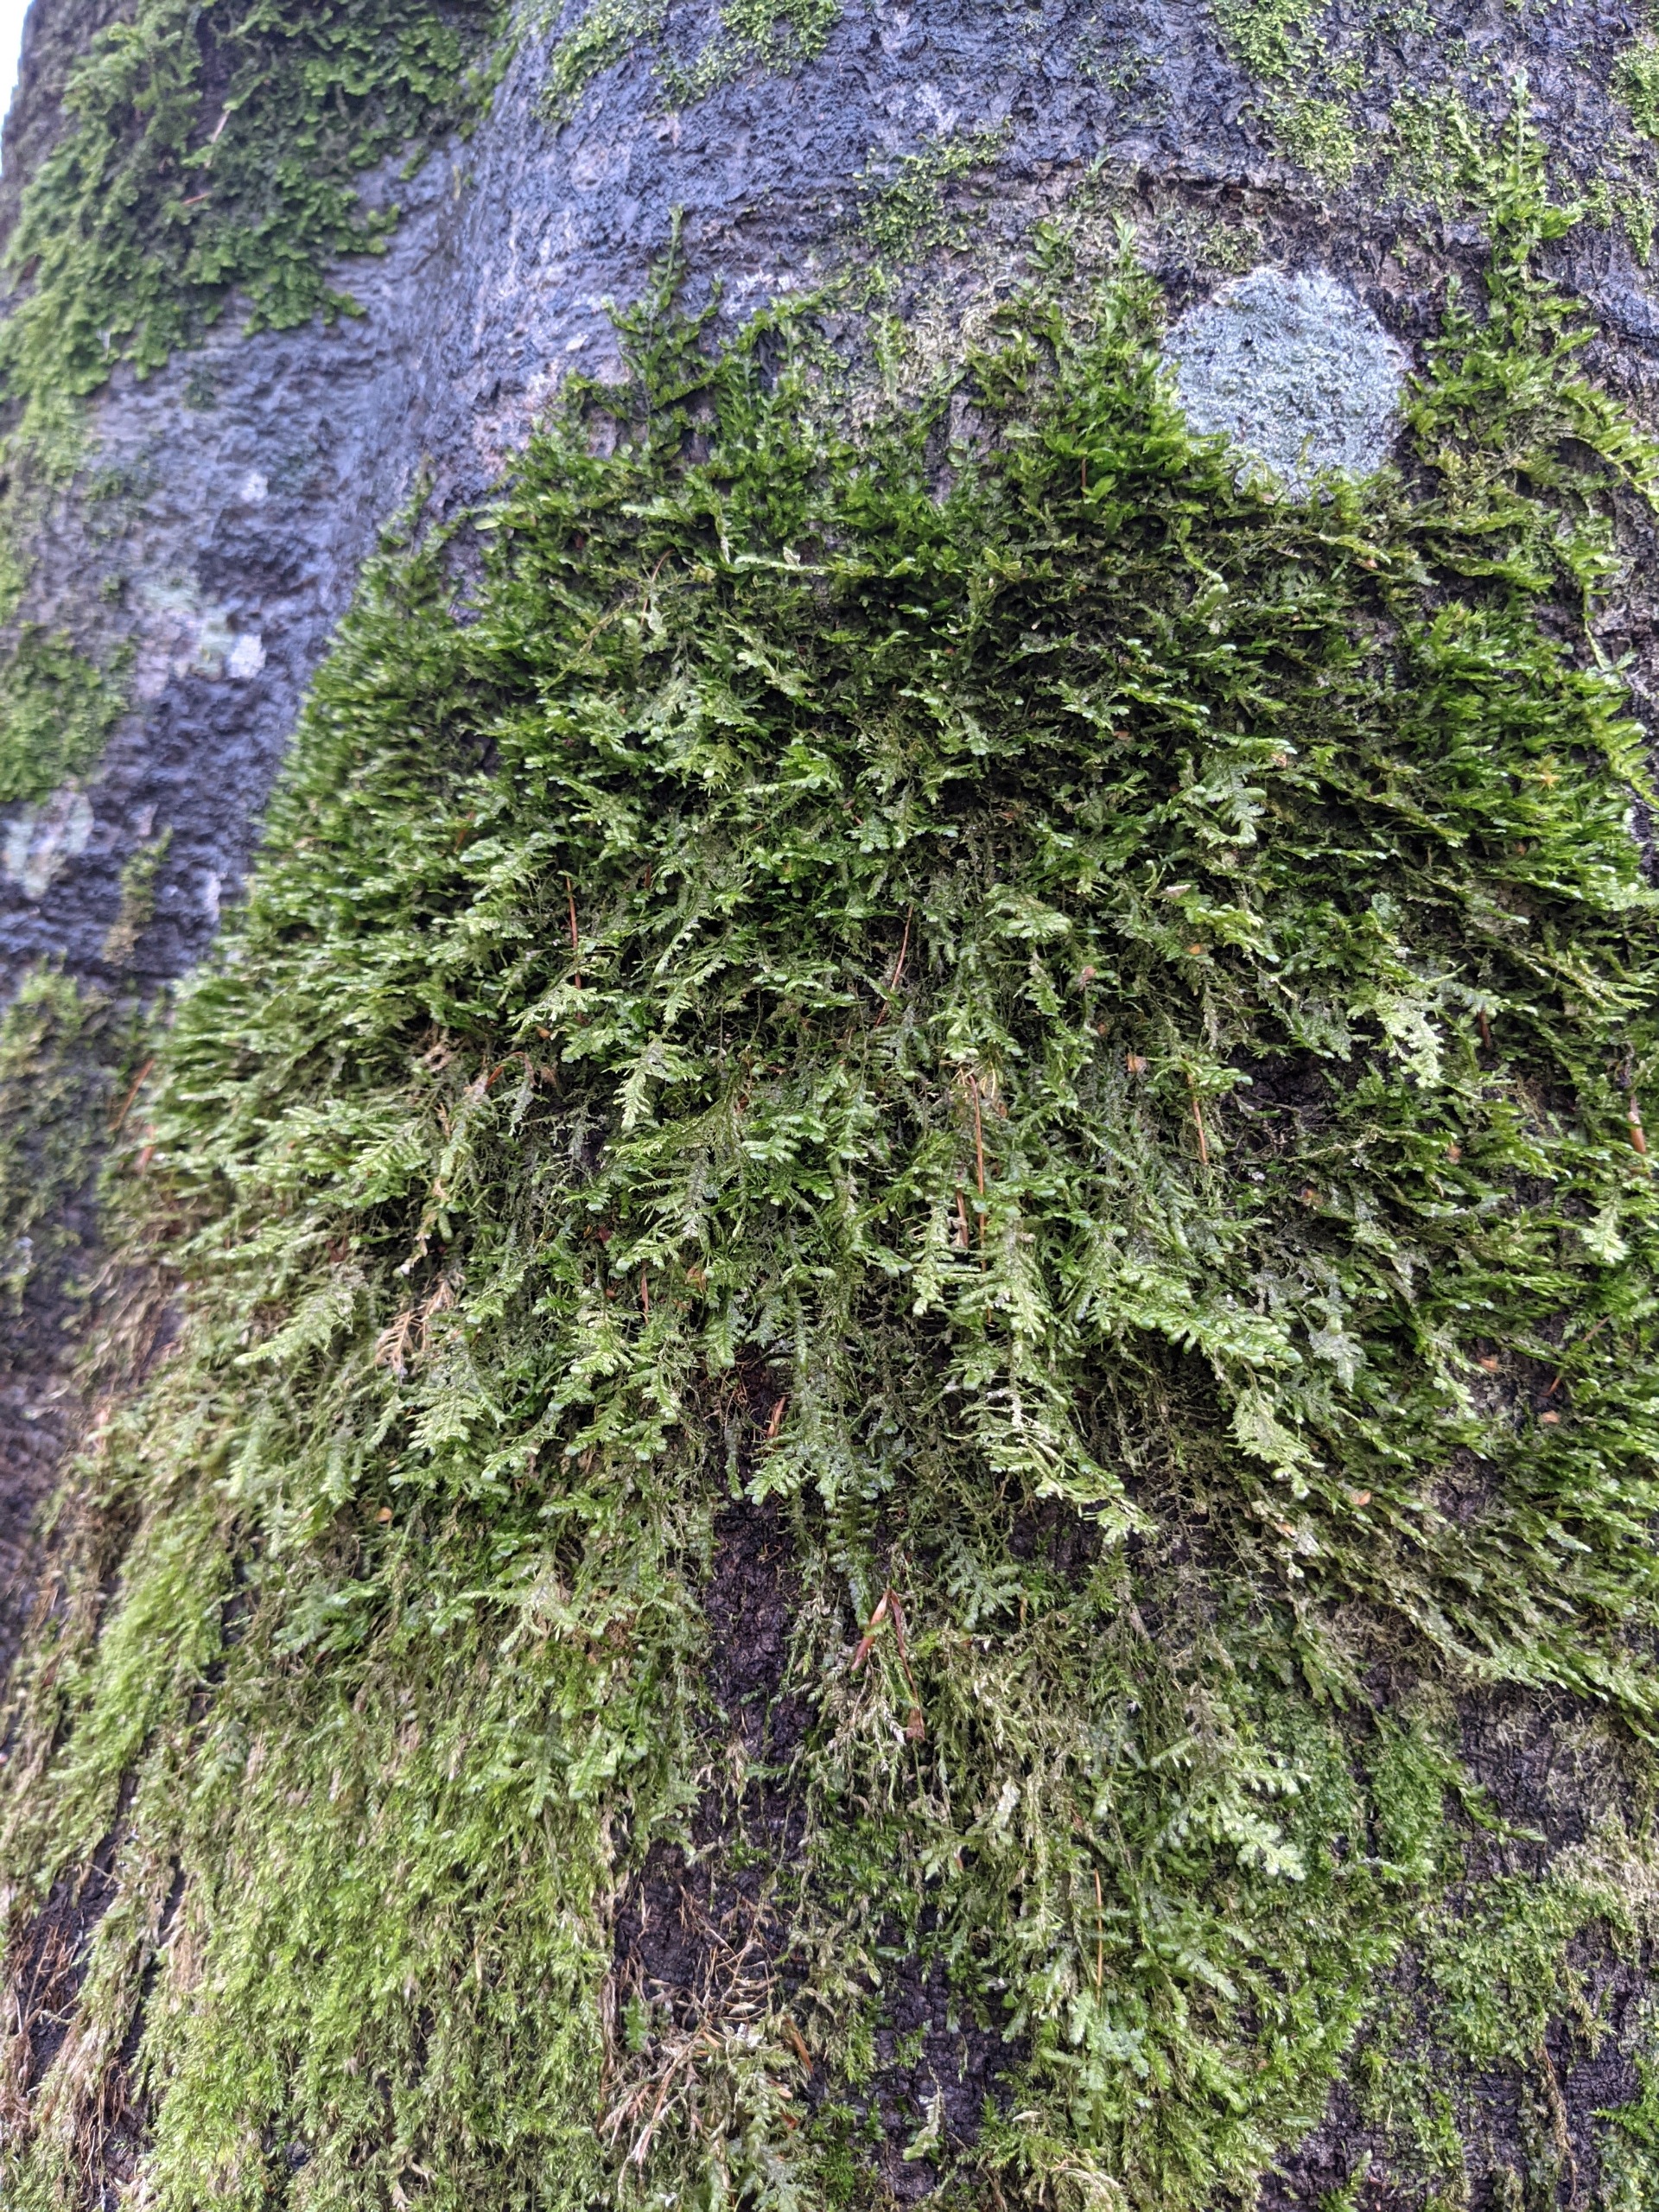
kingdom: Plantae
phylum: Bryophyta
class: Bryopsida
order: Hypnales
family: Neckeraceae
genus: Alleniella
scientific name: Alleniella complanata
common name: Almindelig fladmos
